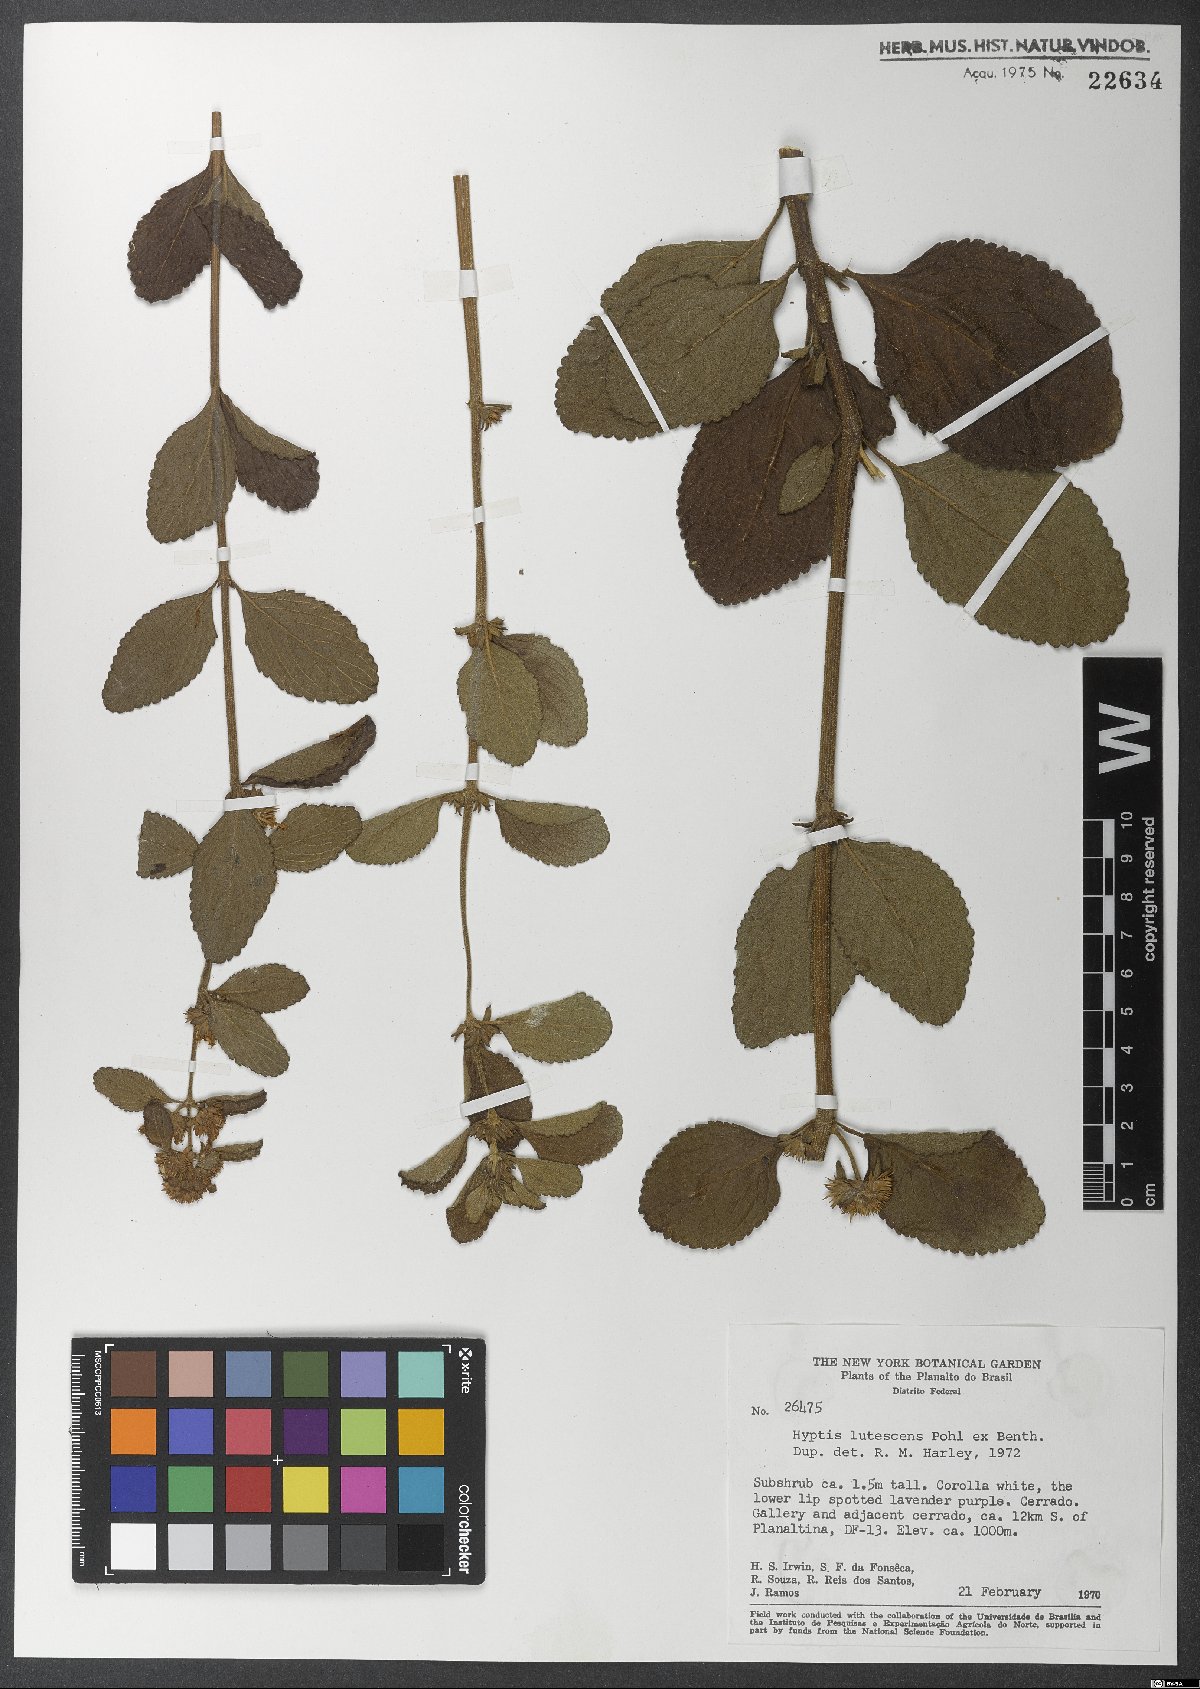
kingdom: Plantae
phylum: Tracheophyta
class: Magnoliopsida
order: Lamiales
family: Lamiaceae
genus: Hyptis
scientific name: Hyptis lutescens
